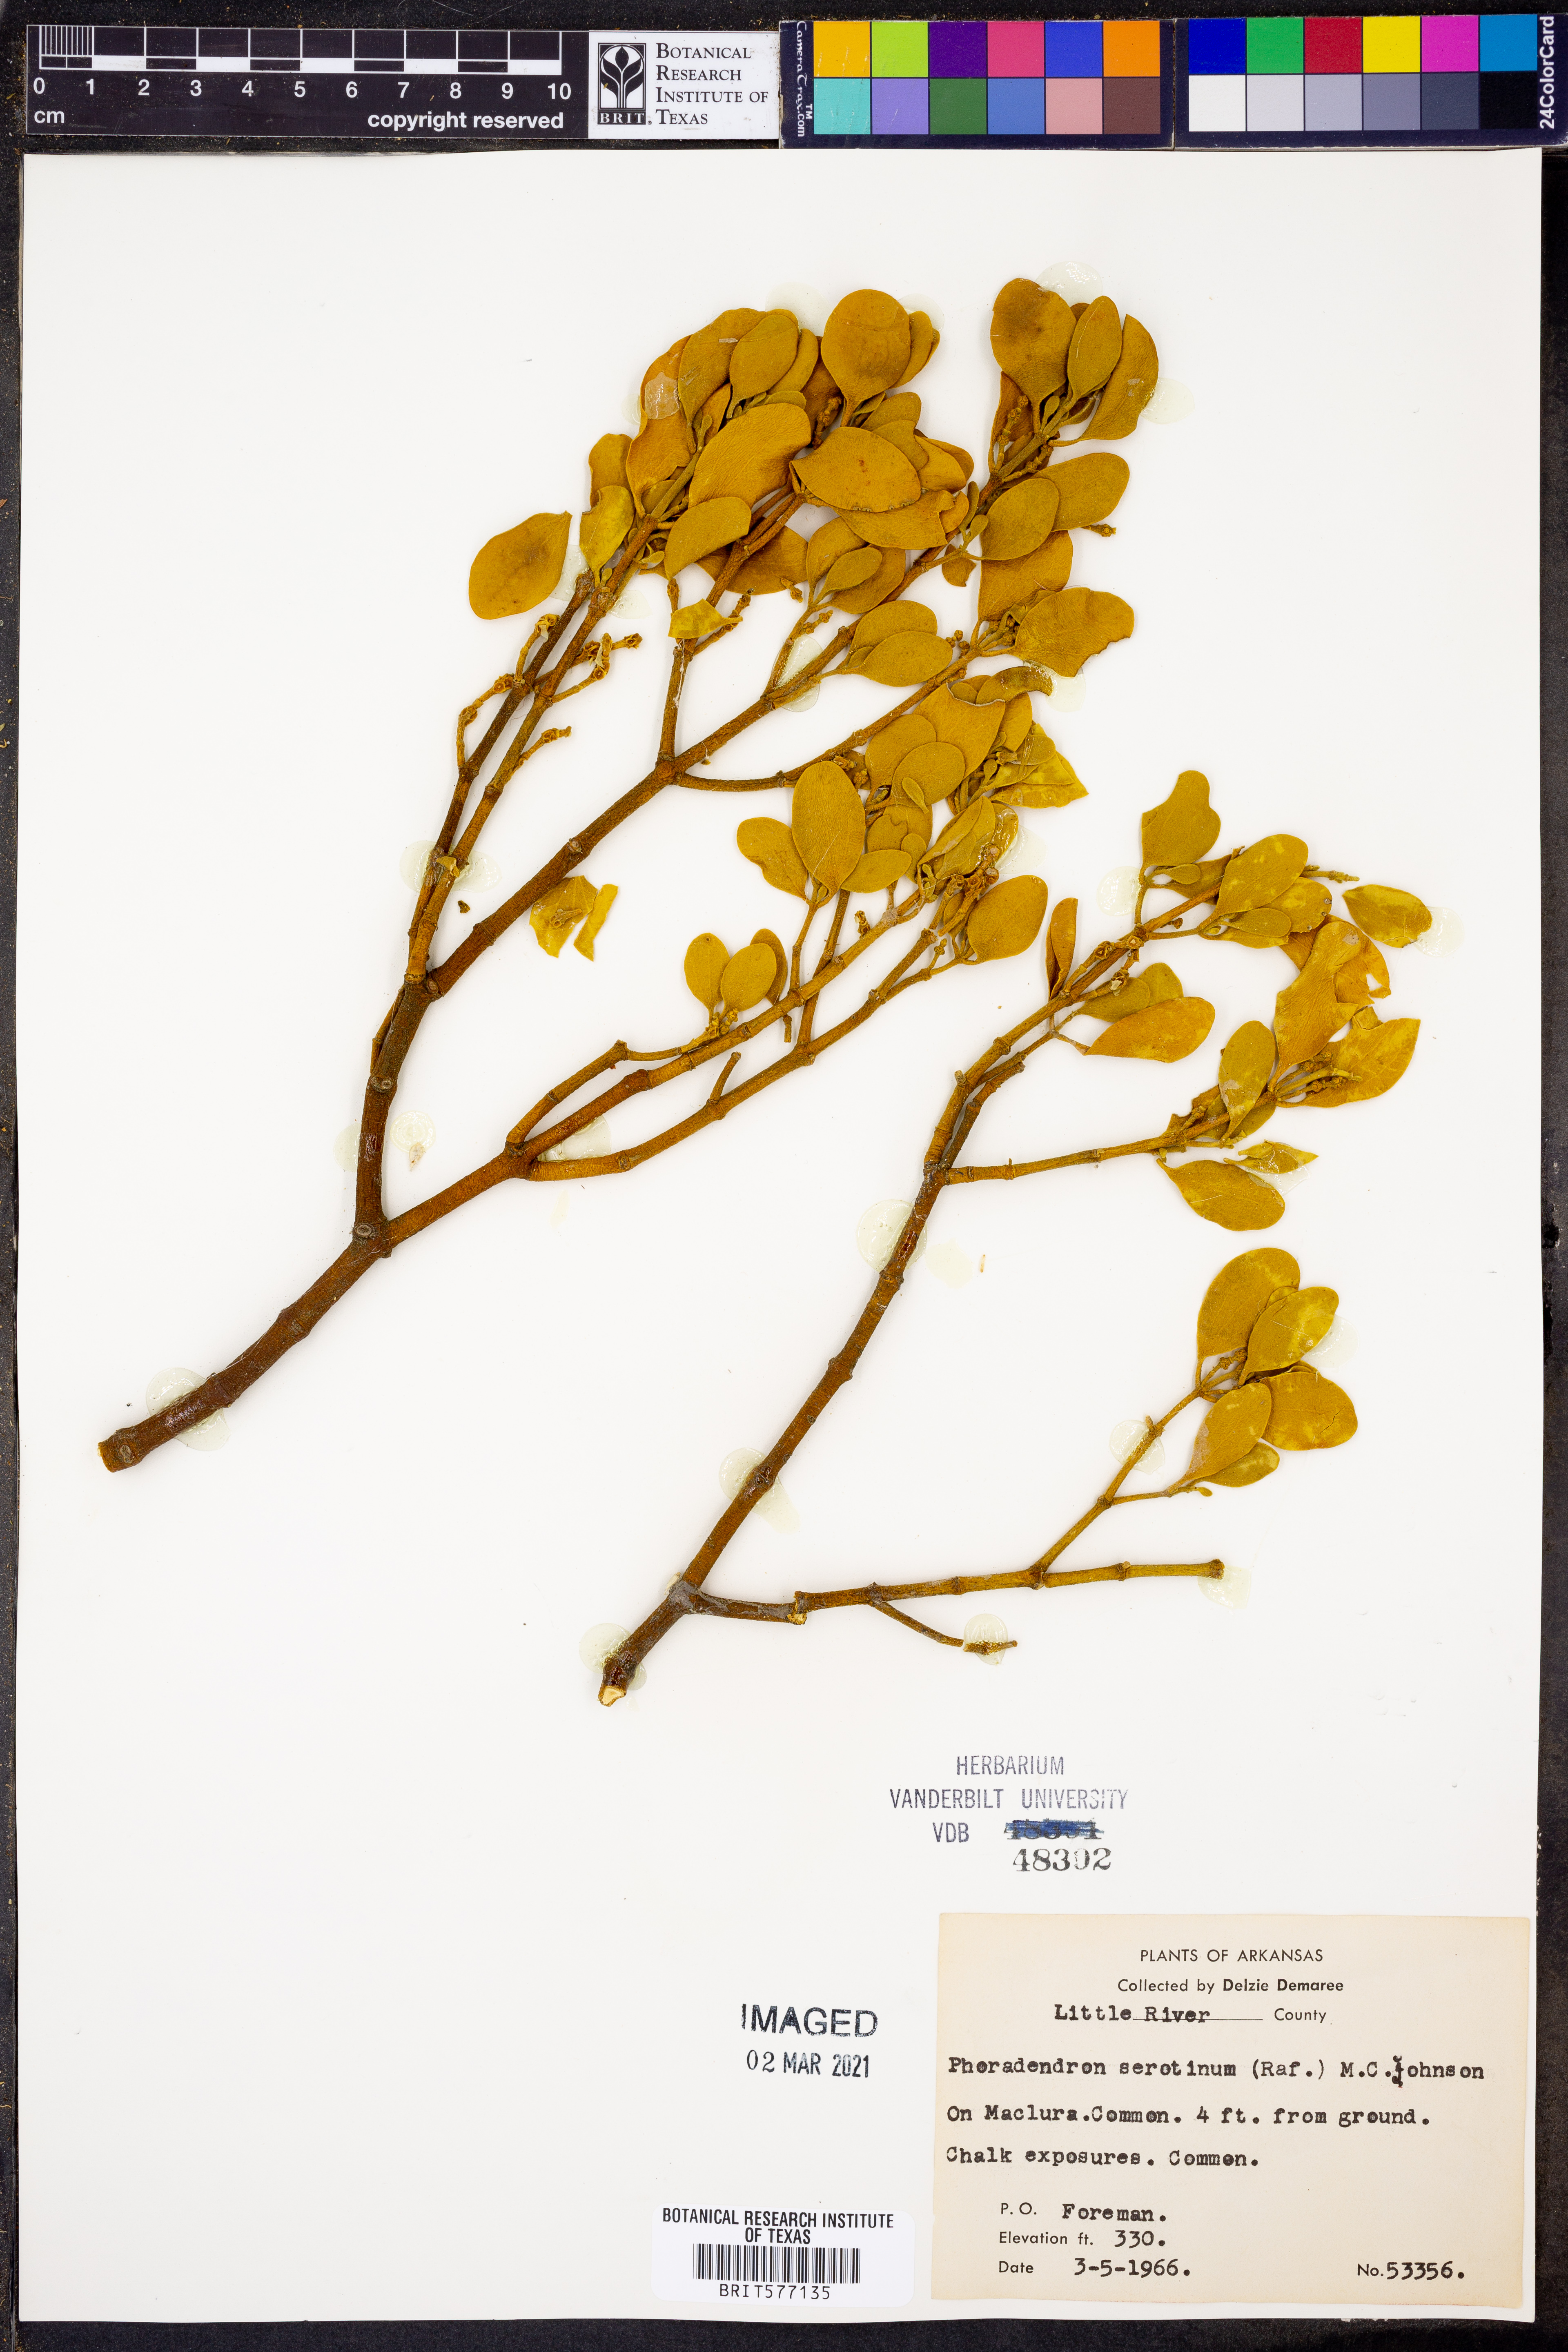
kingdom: Plantae
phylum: Tracheophyta
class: Magnoliopsida
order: Santalales
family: Viscaceae
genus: Phoradendron
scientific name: Phoradendron leucarpum
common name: Pacific mistletoe
